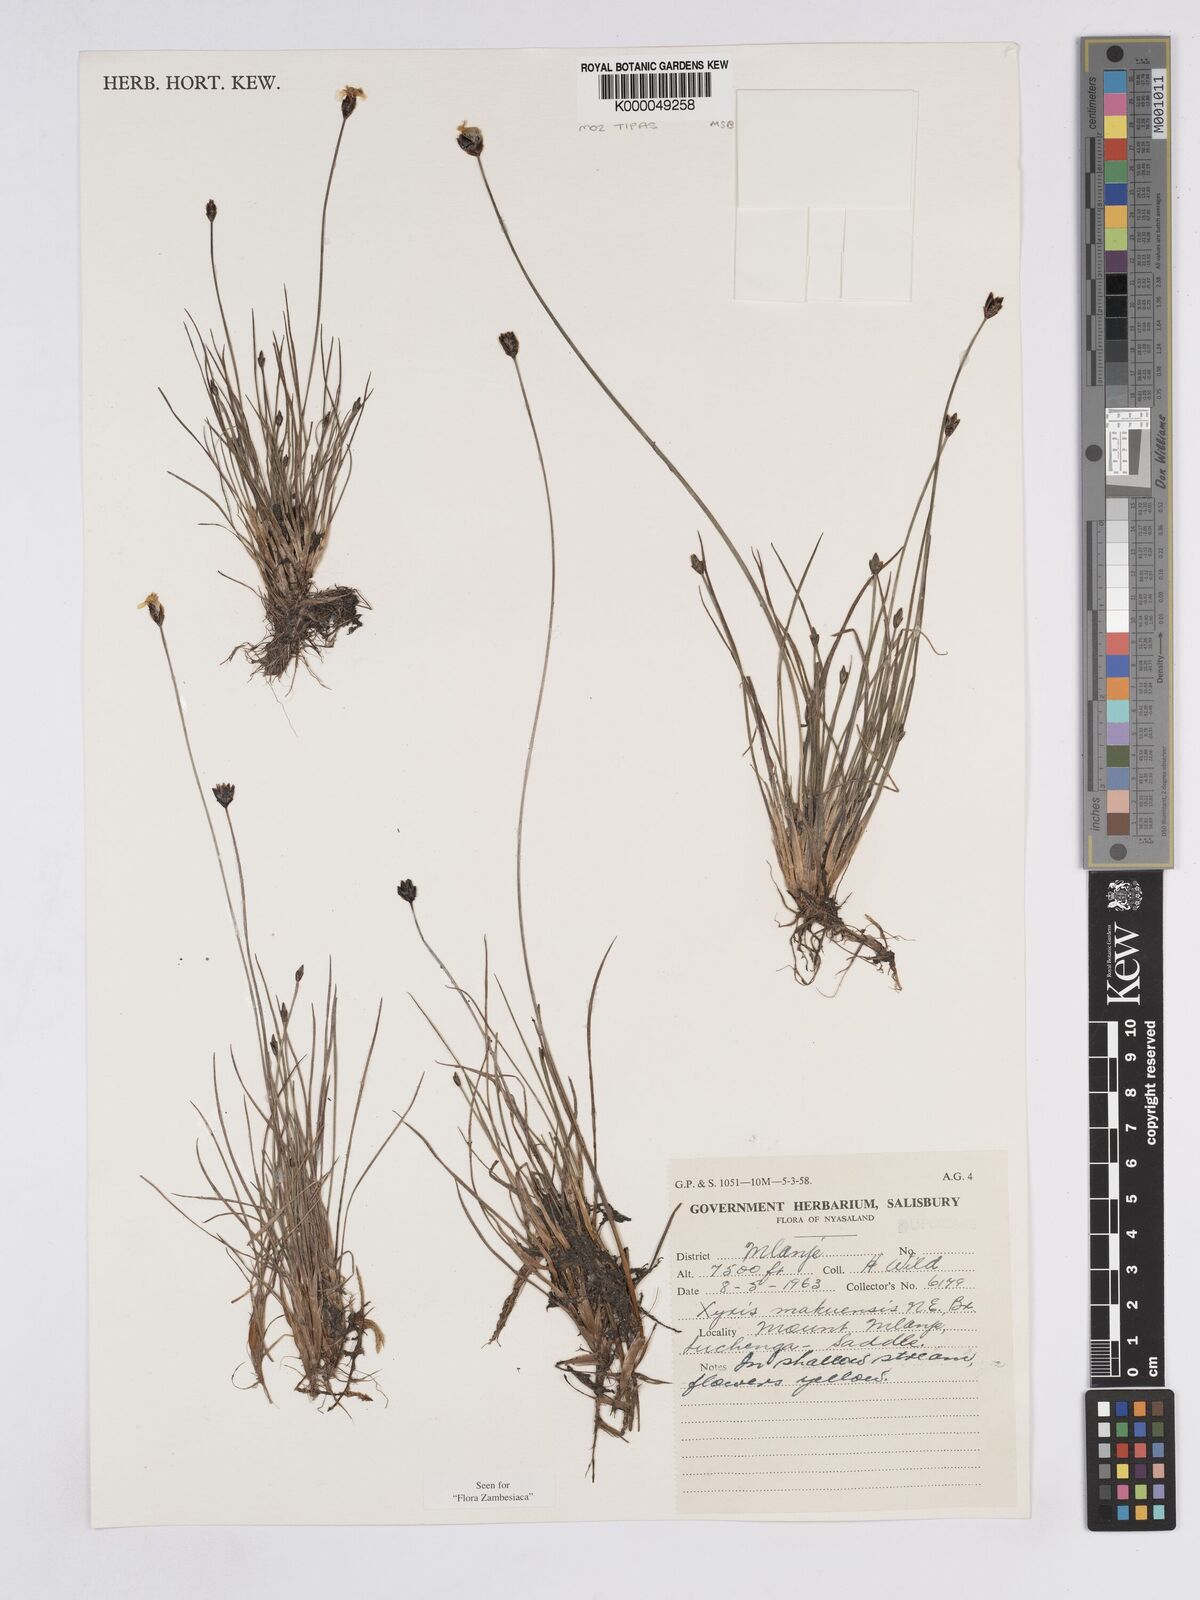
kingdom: Plantae
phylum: Tracheophyta
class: Liliopsida
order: Poales
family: Xyridaceae
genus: Xyris
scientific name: Xyris makuensis
